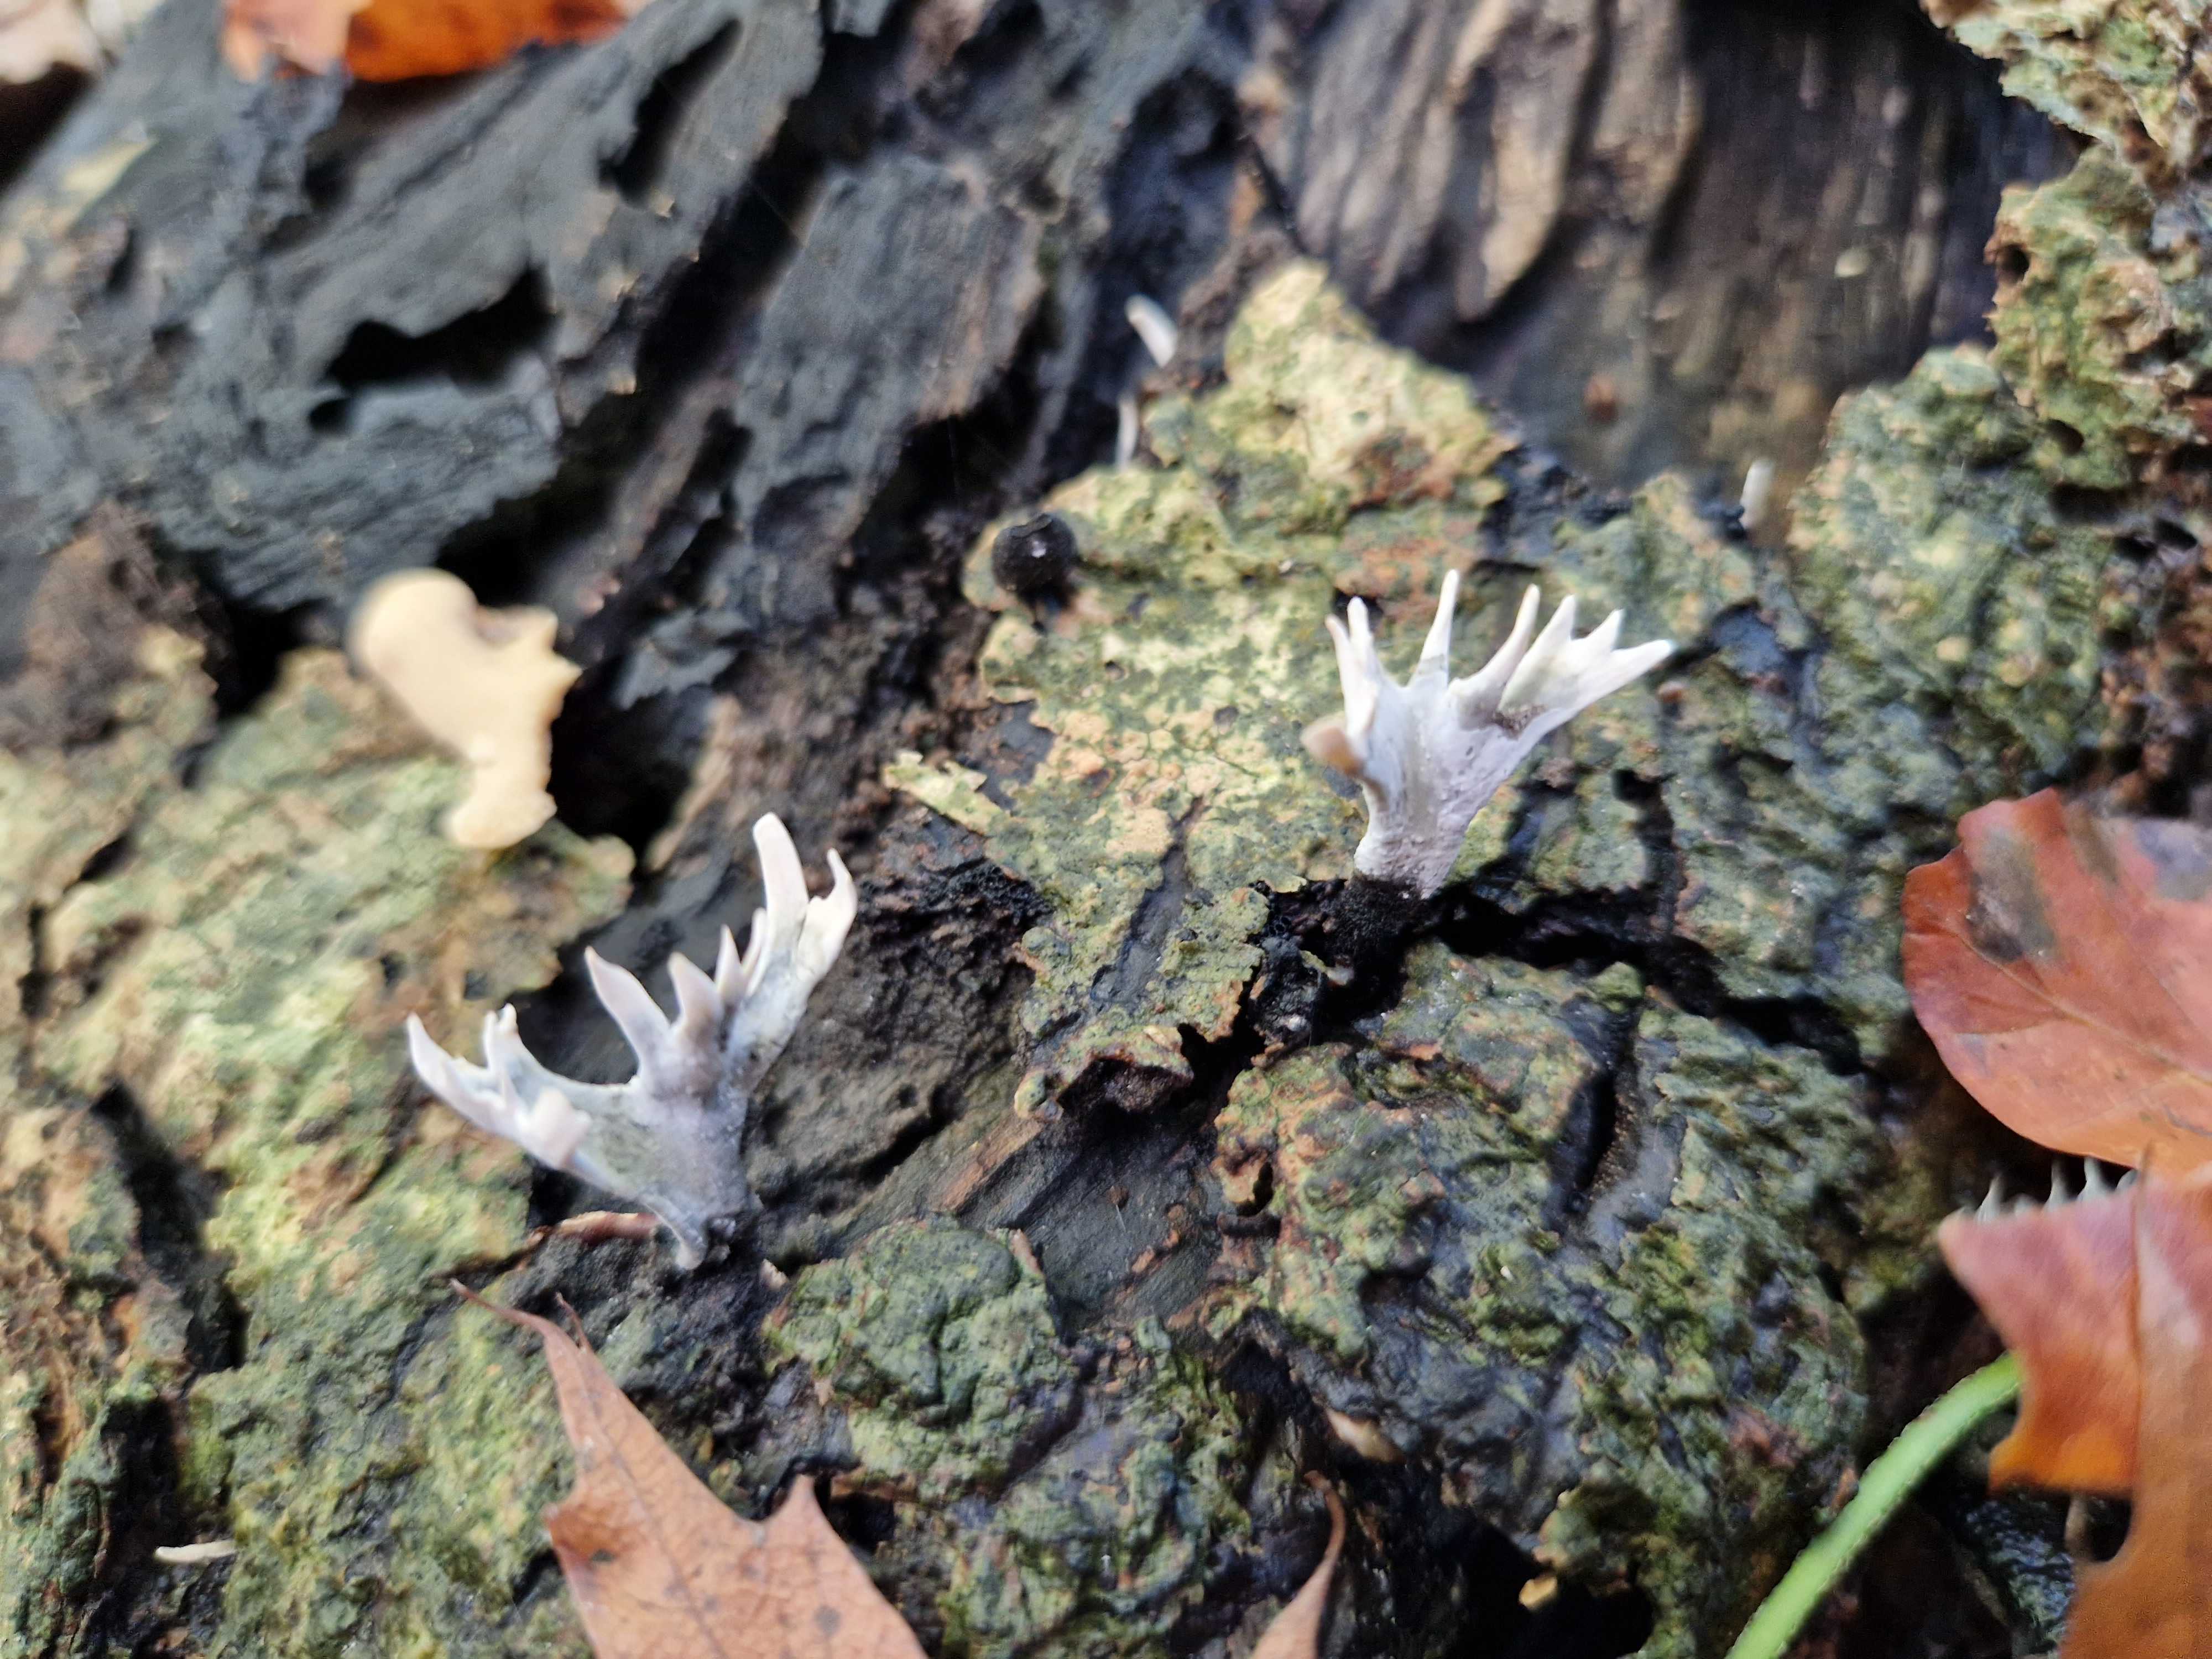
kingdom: Fungi
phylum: Ascomycota
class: Sordariomycetes
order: Xylariales
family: Xylariaceae
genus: Xylaria
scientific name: Xylaria hypoxylon
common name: grenet stødsvamp
